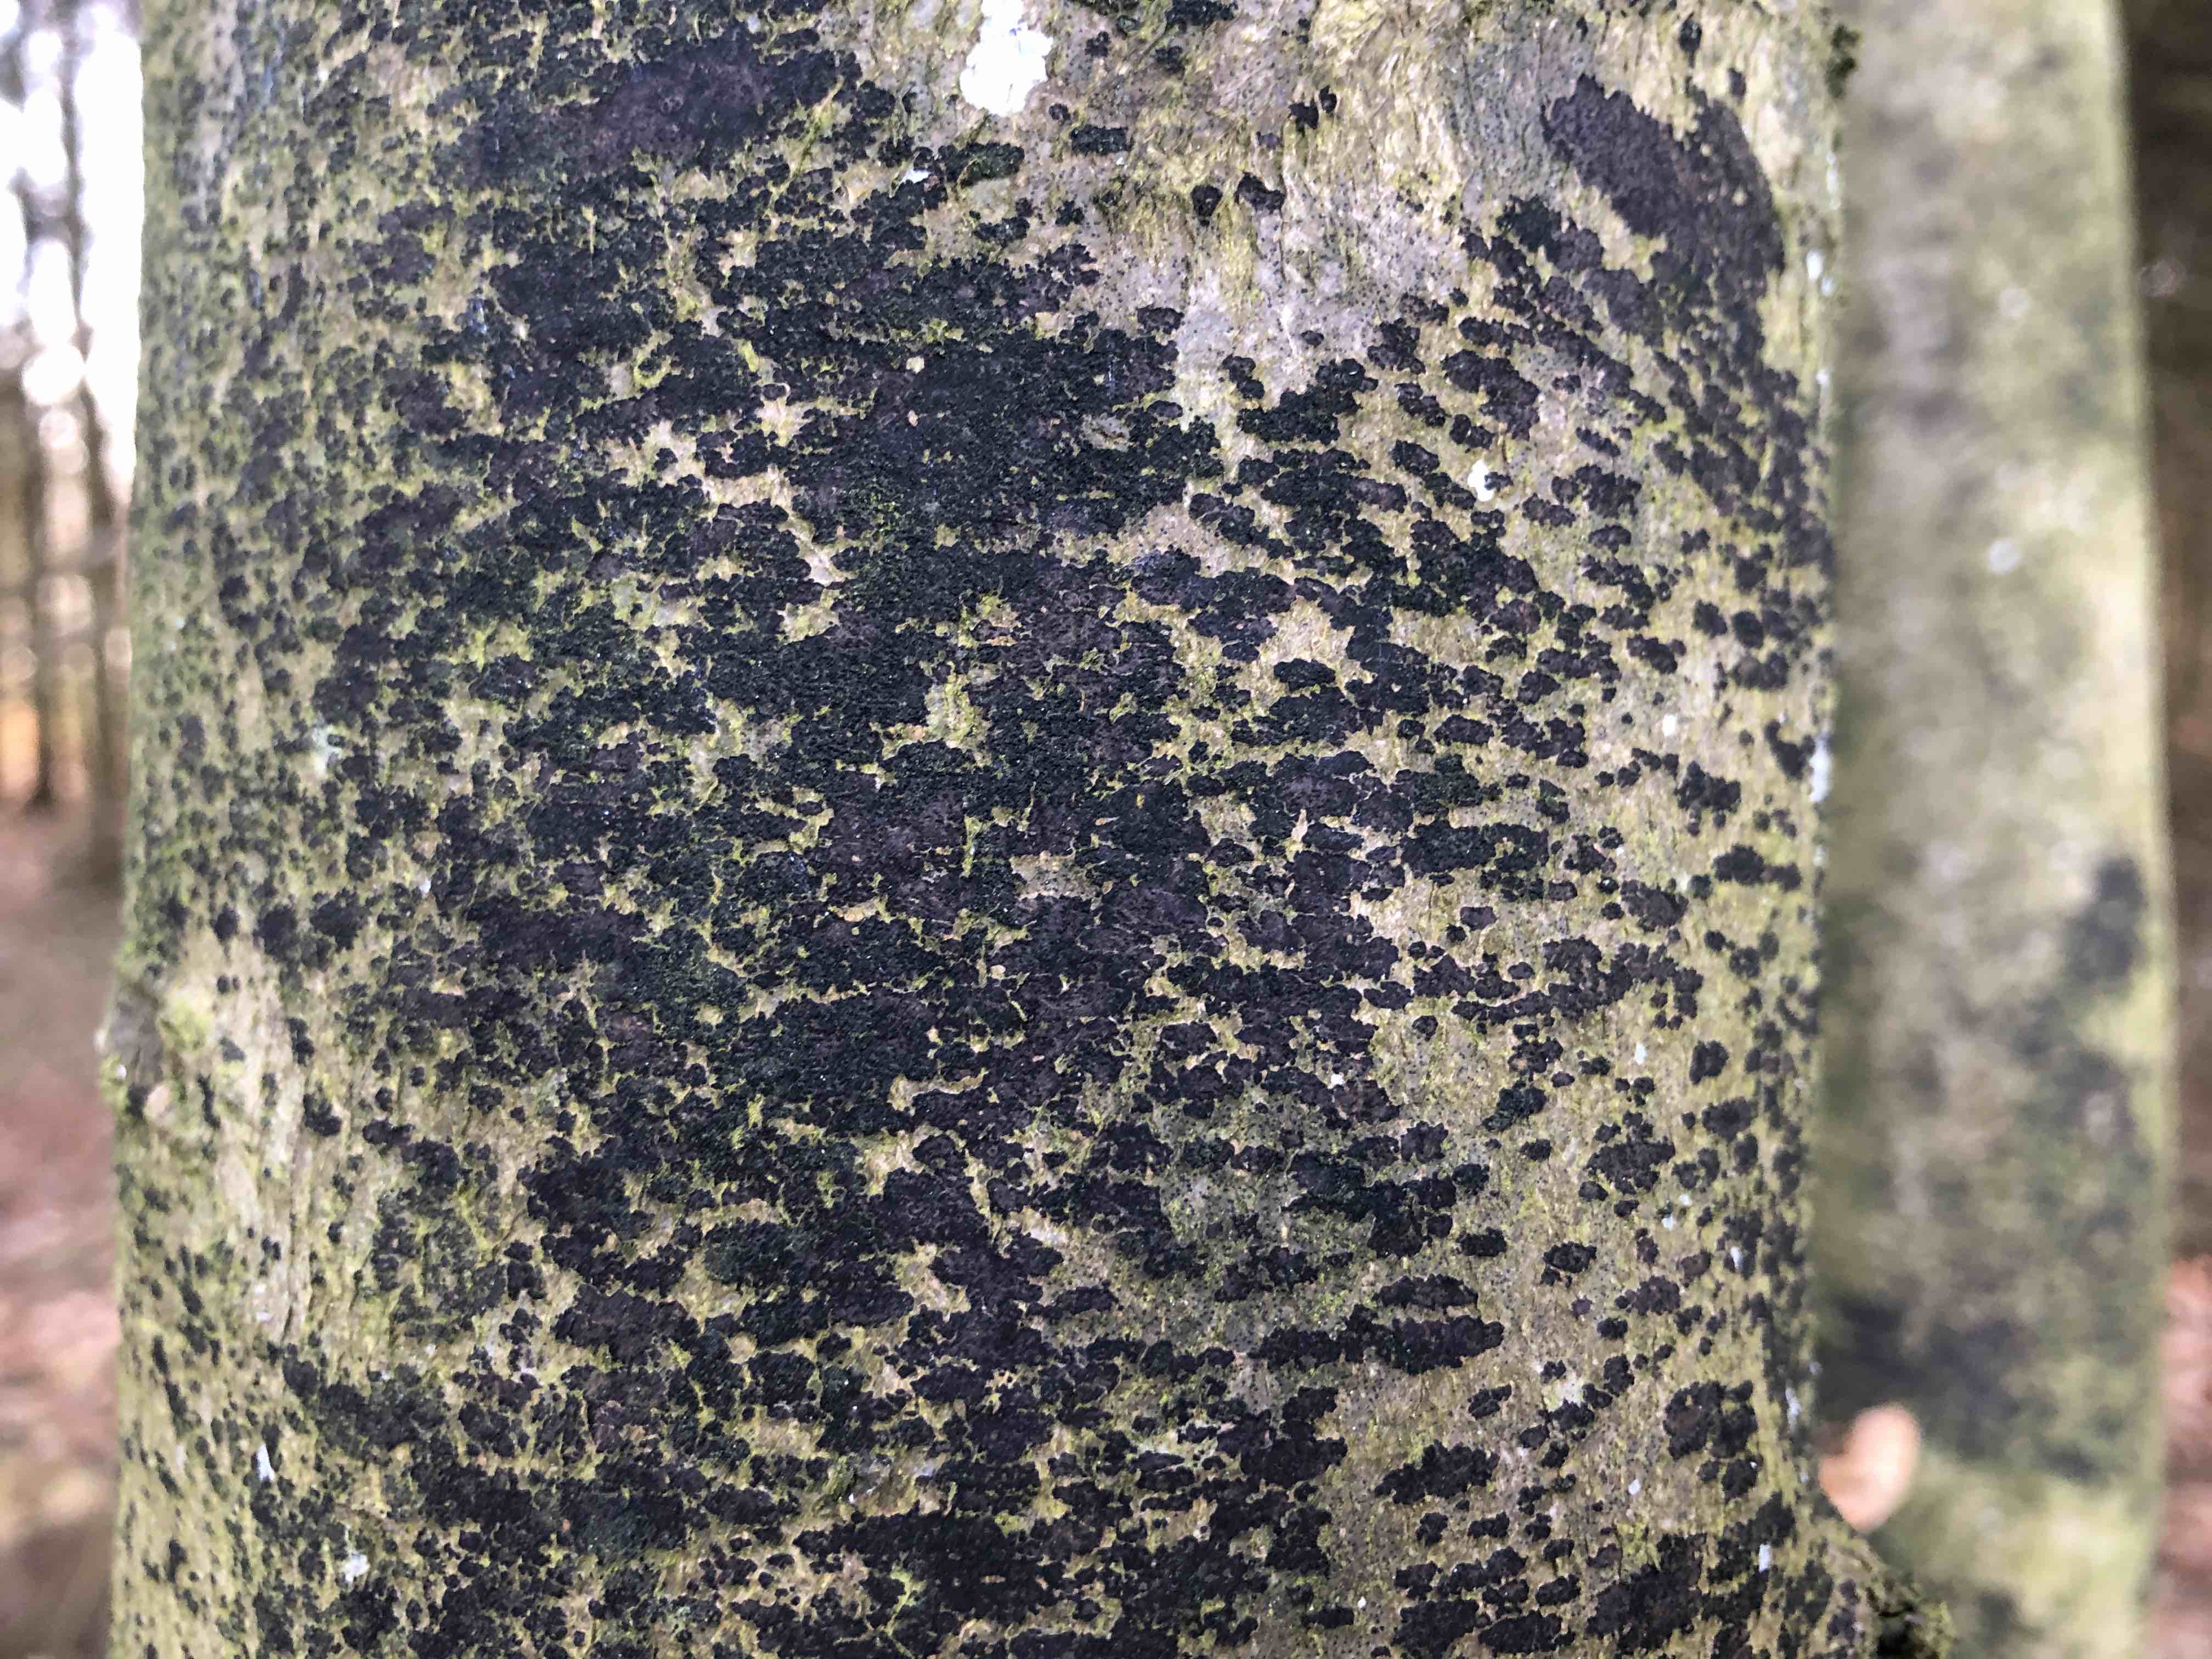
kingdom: Fungi
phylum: Ascomycota
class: Leotiomycetes
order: Rhytismatales
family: Ascodichaenaceae
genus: Ascodichaena
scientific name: Ascodichaena rugosa
